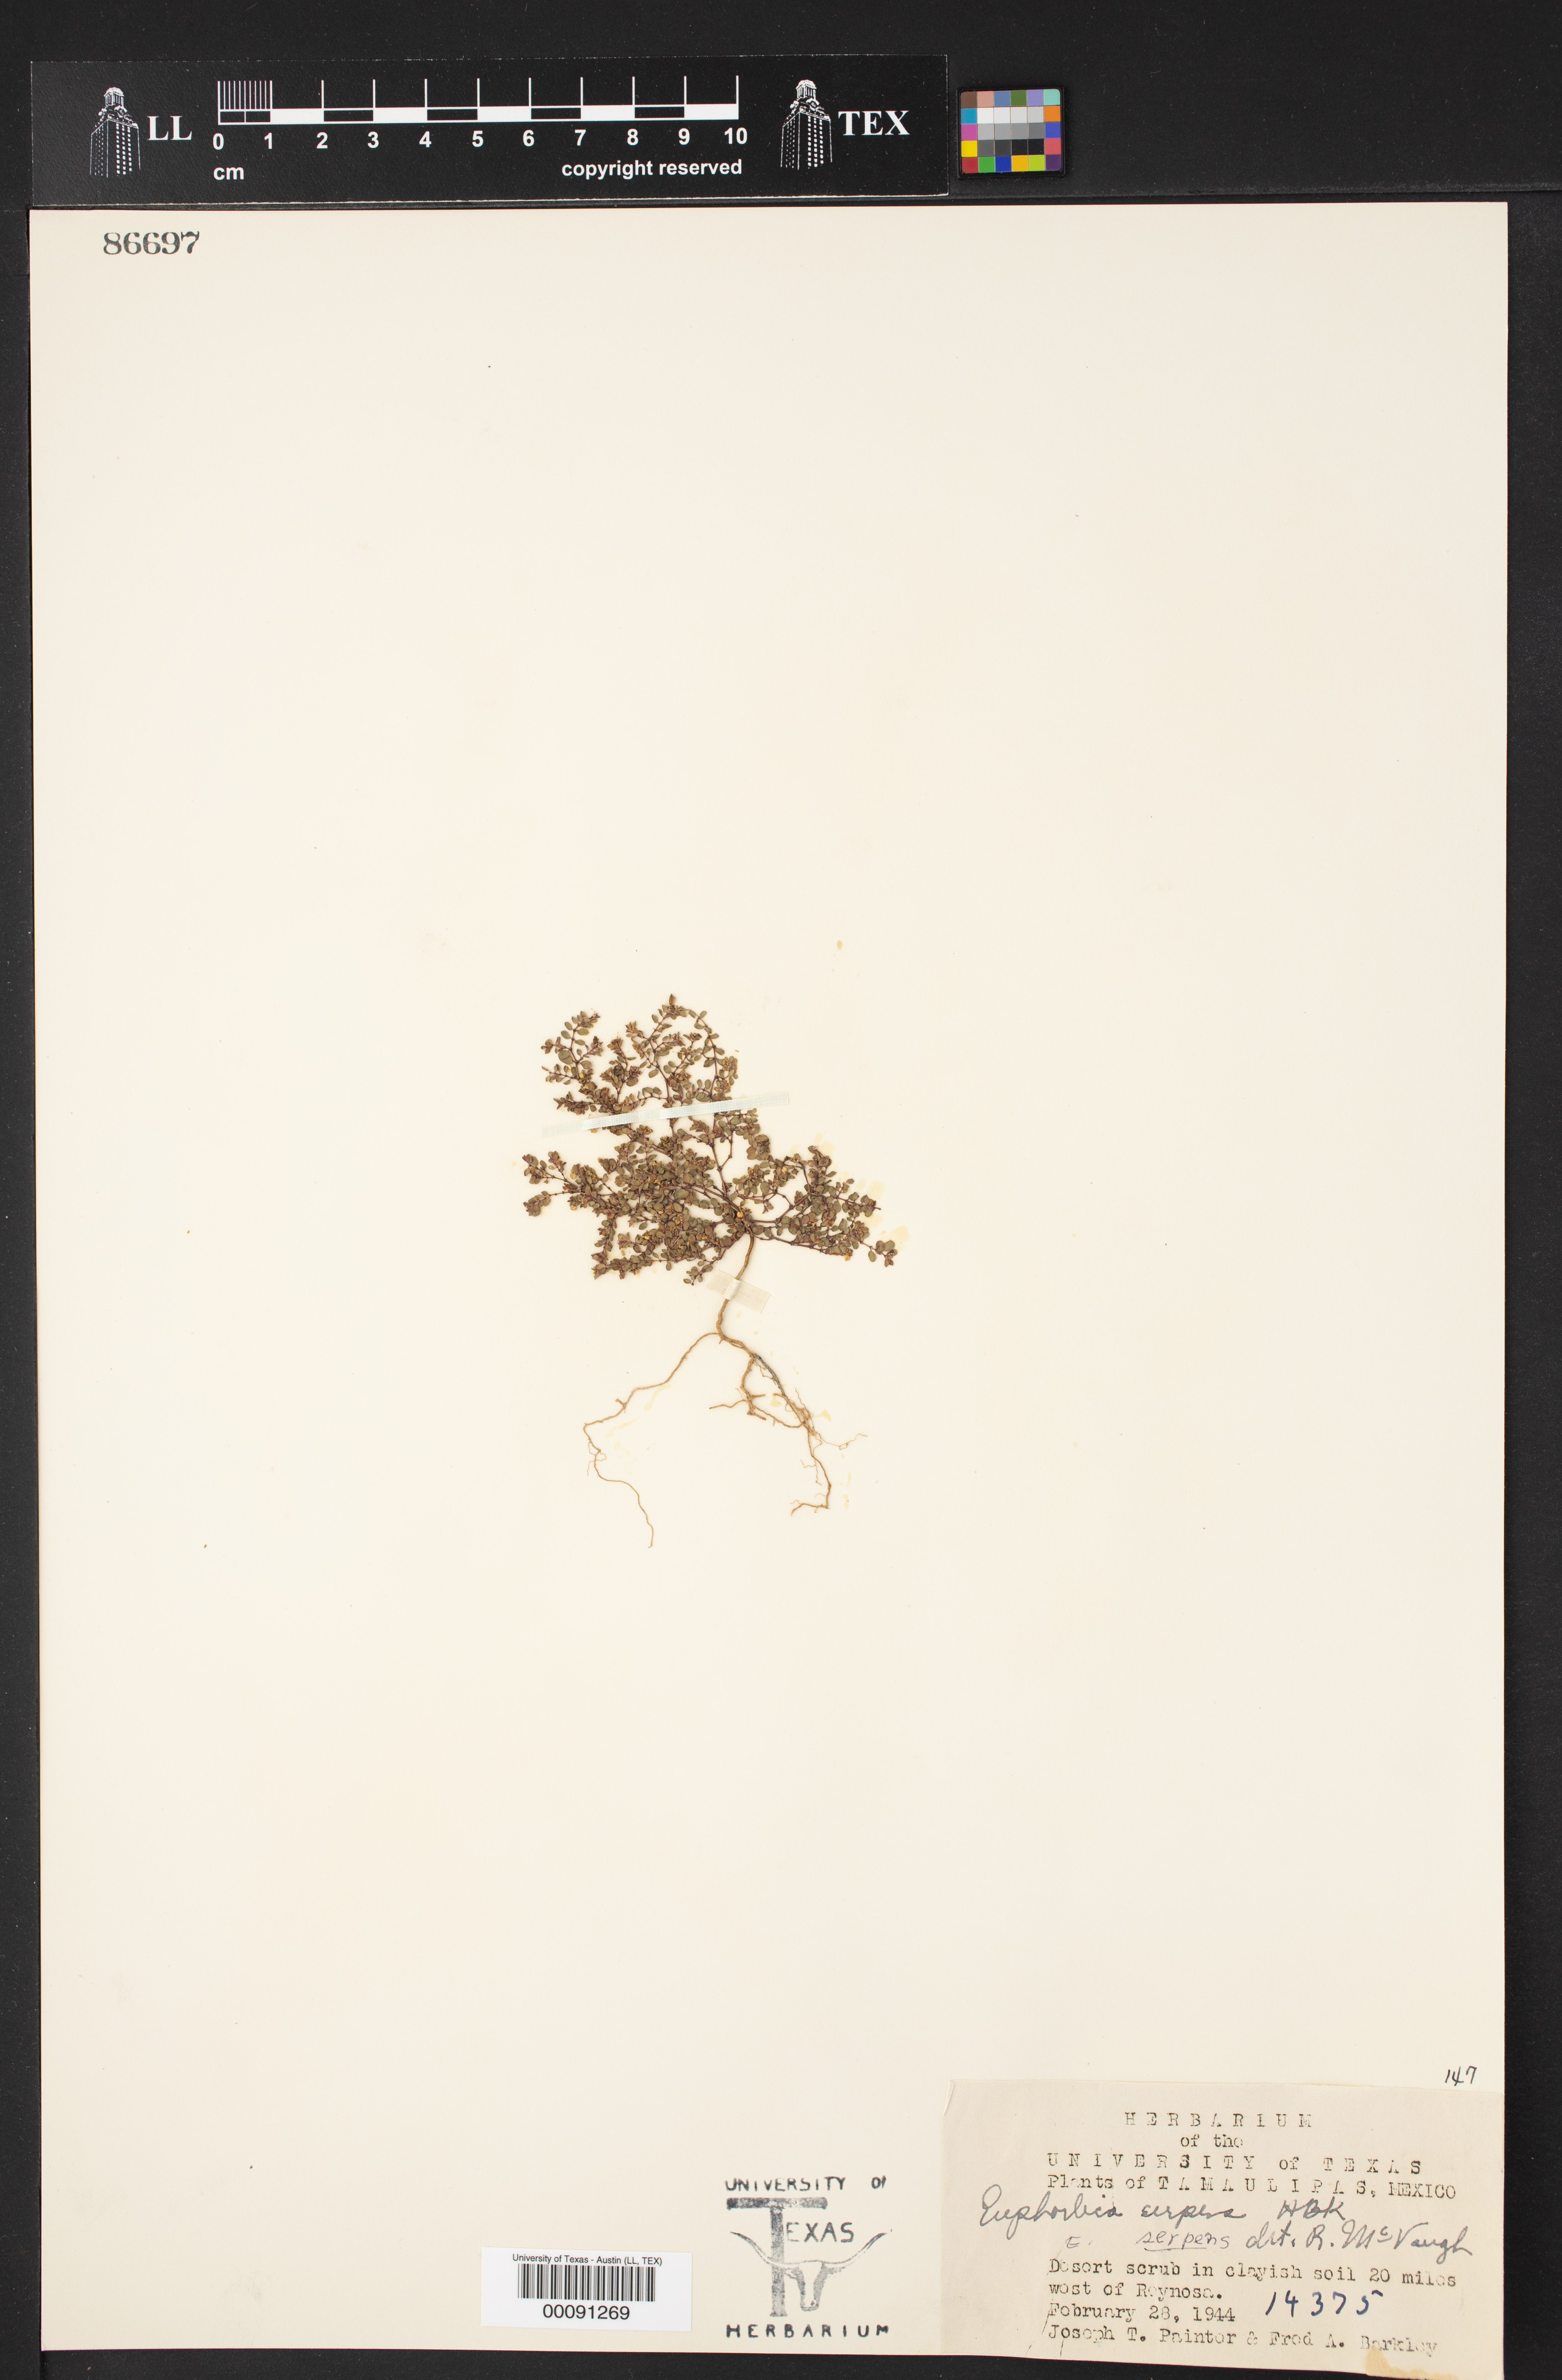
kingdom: Plantae
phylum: Tracheophyta
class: Magnoliopsida
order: Malpighiales
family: Euphorbiaceae
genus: Euphorbia
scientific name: Euphorbia serpens
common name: Matted sandmat
